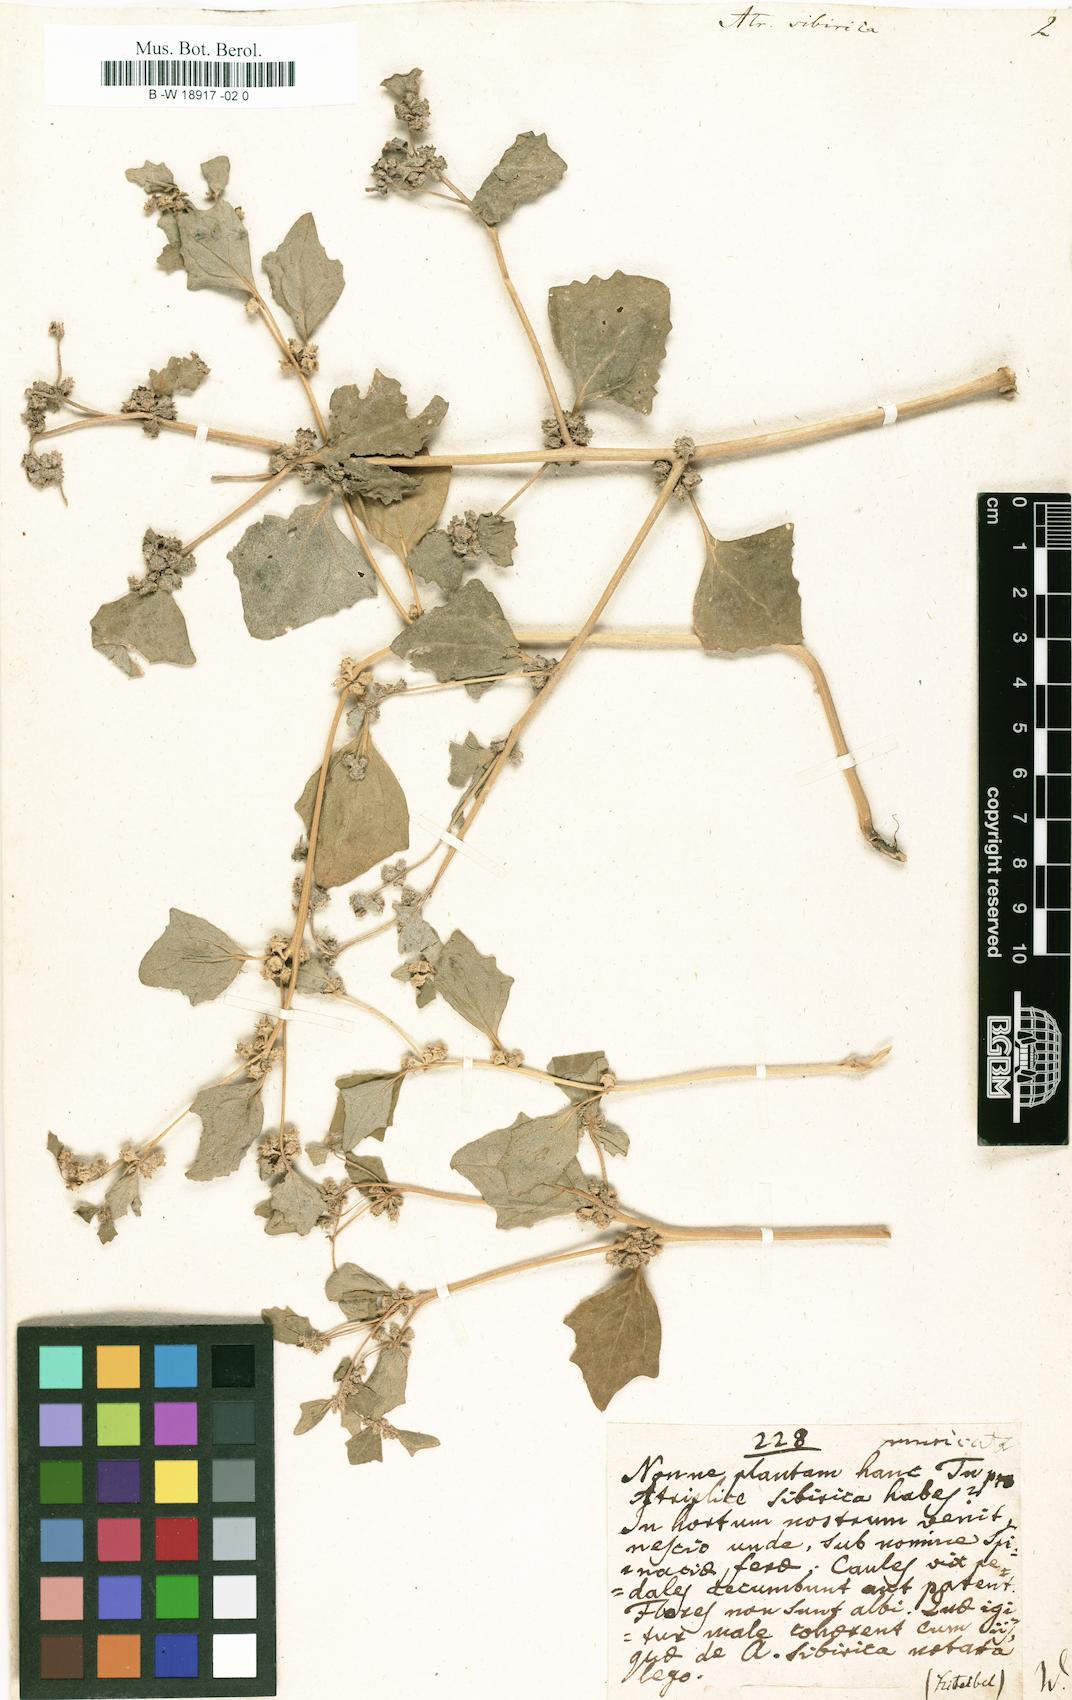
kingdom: Plantae
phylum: Tracheophyta
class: Magnoliopsida
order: Caryophyllales
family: Amaranthaceae
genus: Atriplex
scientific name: Atriplex sibirica
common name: Siberian saltbush
